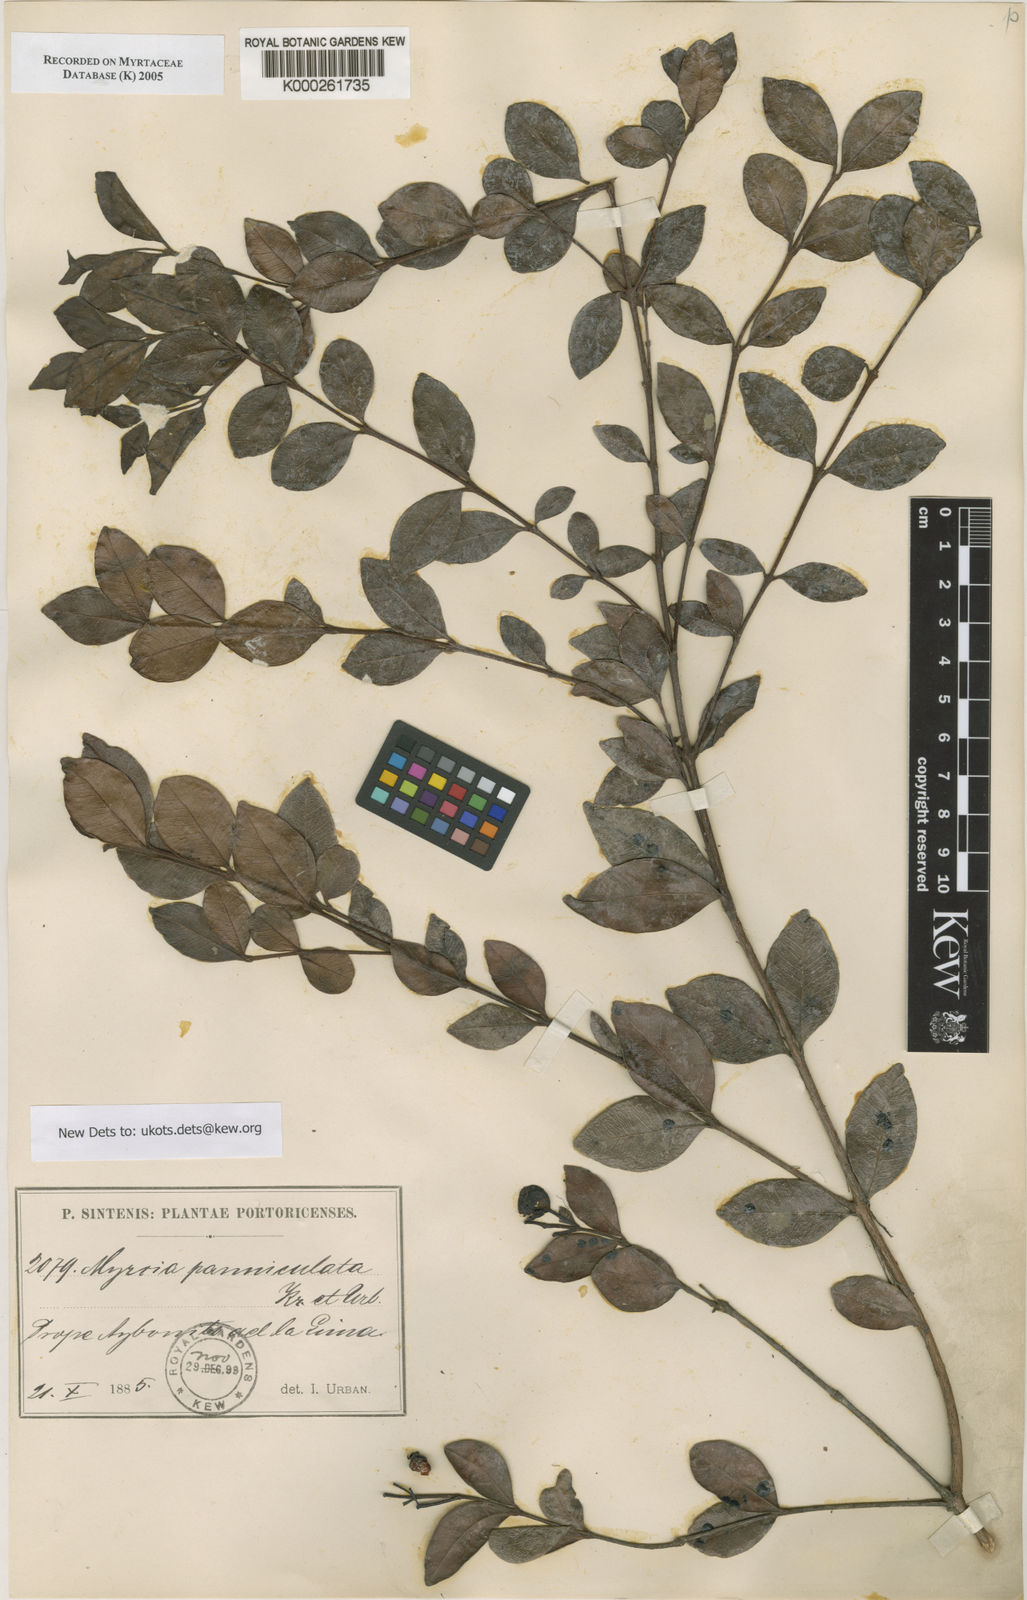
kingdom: Plantae
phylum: Tracheophyta
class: Magnoliopsida
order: Myrtales
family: Myrtaceae
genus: Myrcia
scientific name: Myrcia guianensis
